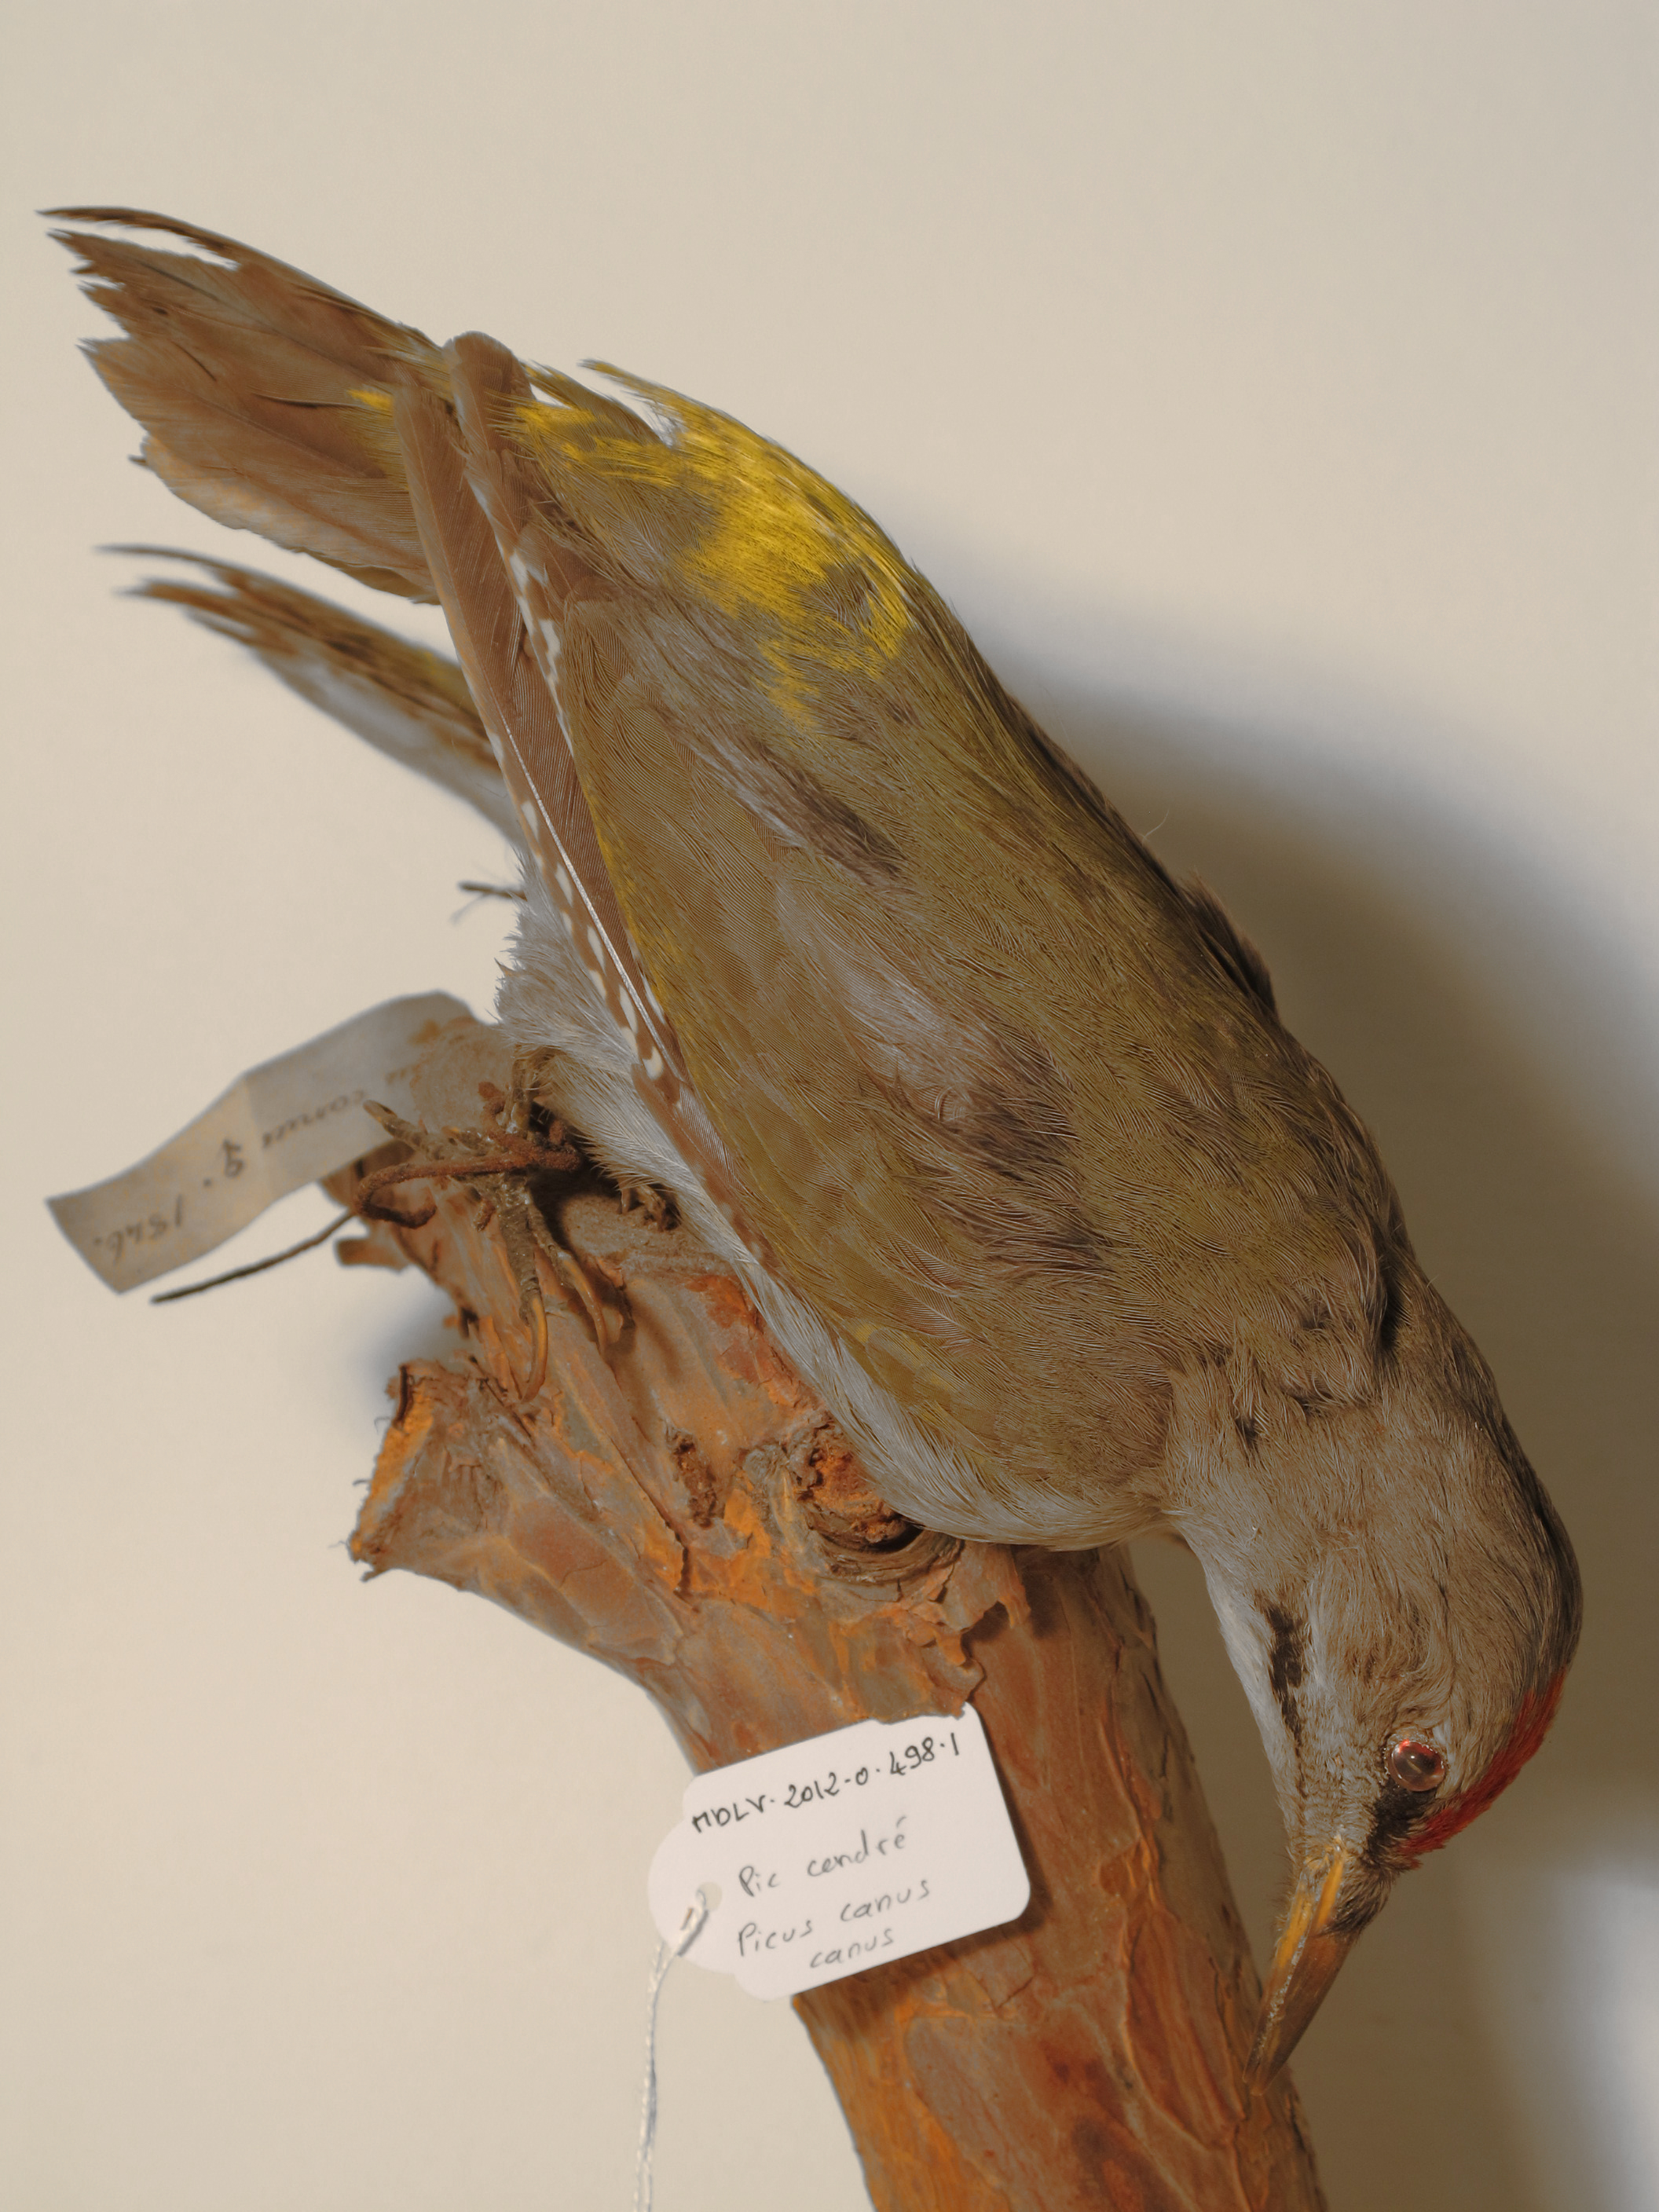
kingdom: Animalia
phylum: Chordata
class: Aves
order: Piciformes
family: Picidae
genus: Picus
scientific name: Picus canus
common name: Grey-faced Woodpecker
